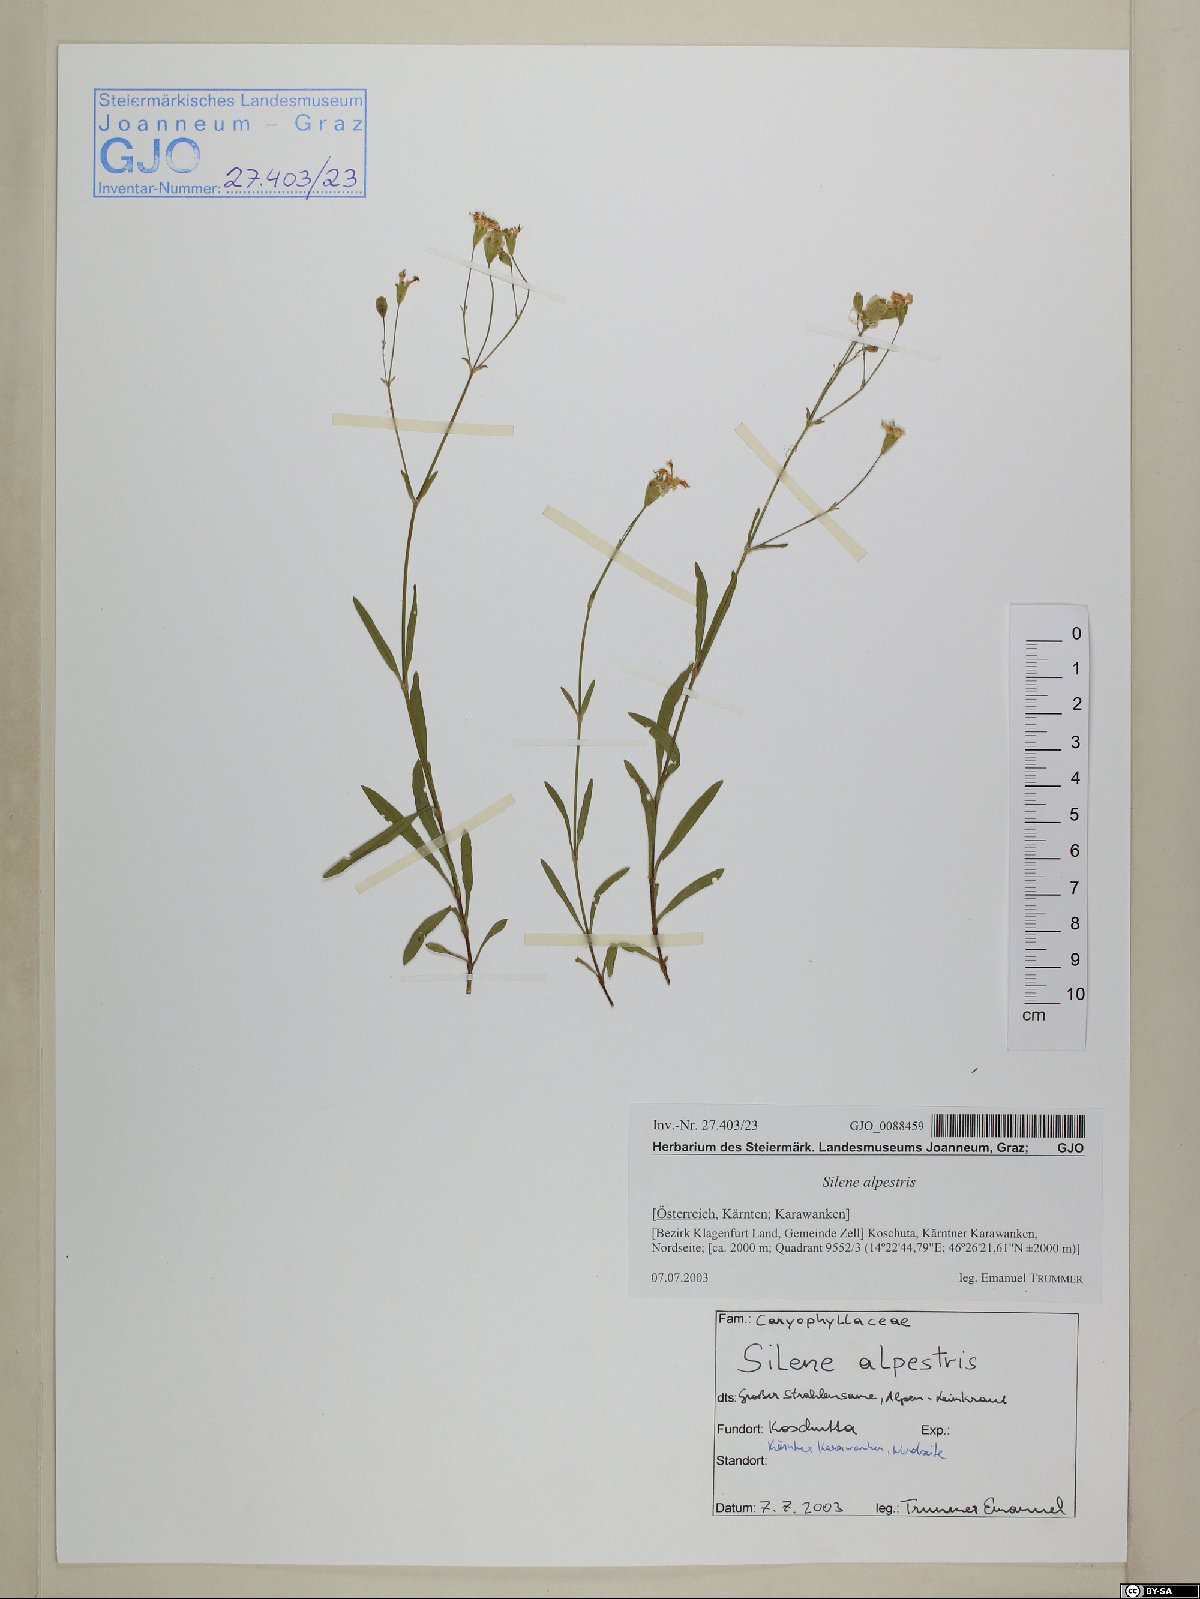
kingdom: Plantae
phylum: Tracheophyta
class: Magnoliopsida
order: Caryophyllales
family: Caryophyllaceae
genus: Heliosperma
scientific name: Heliosperma alpestre
